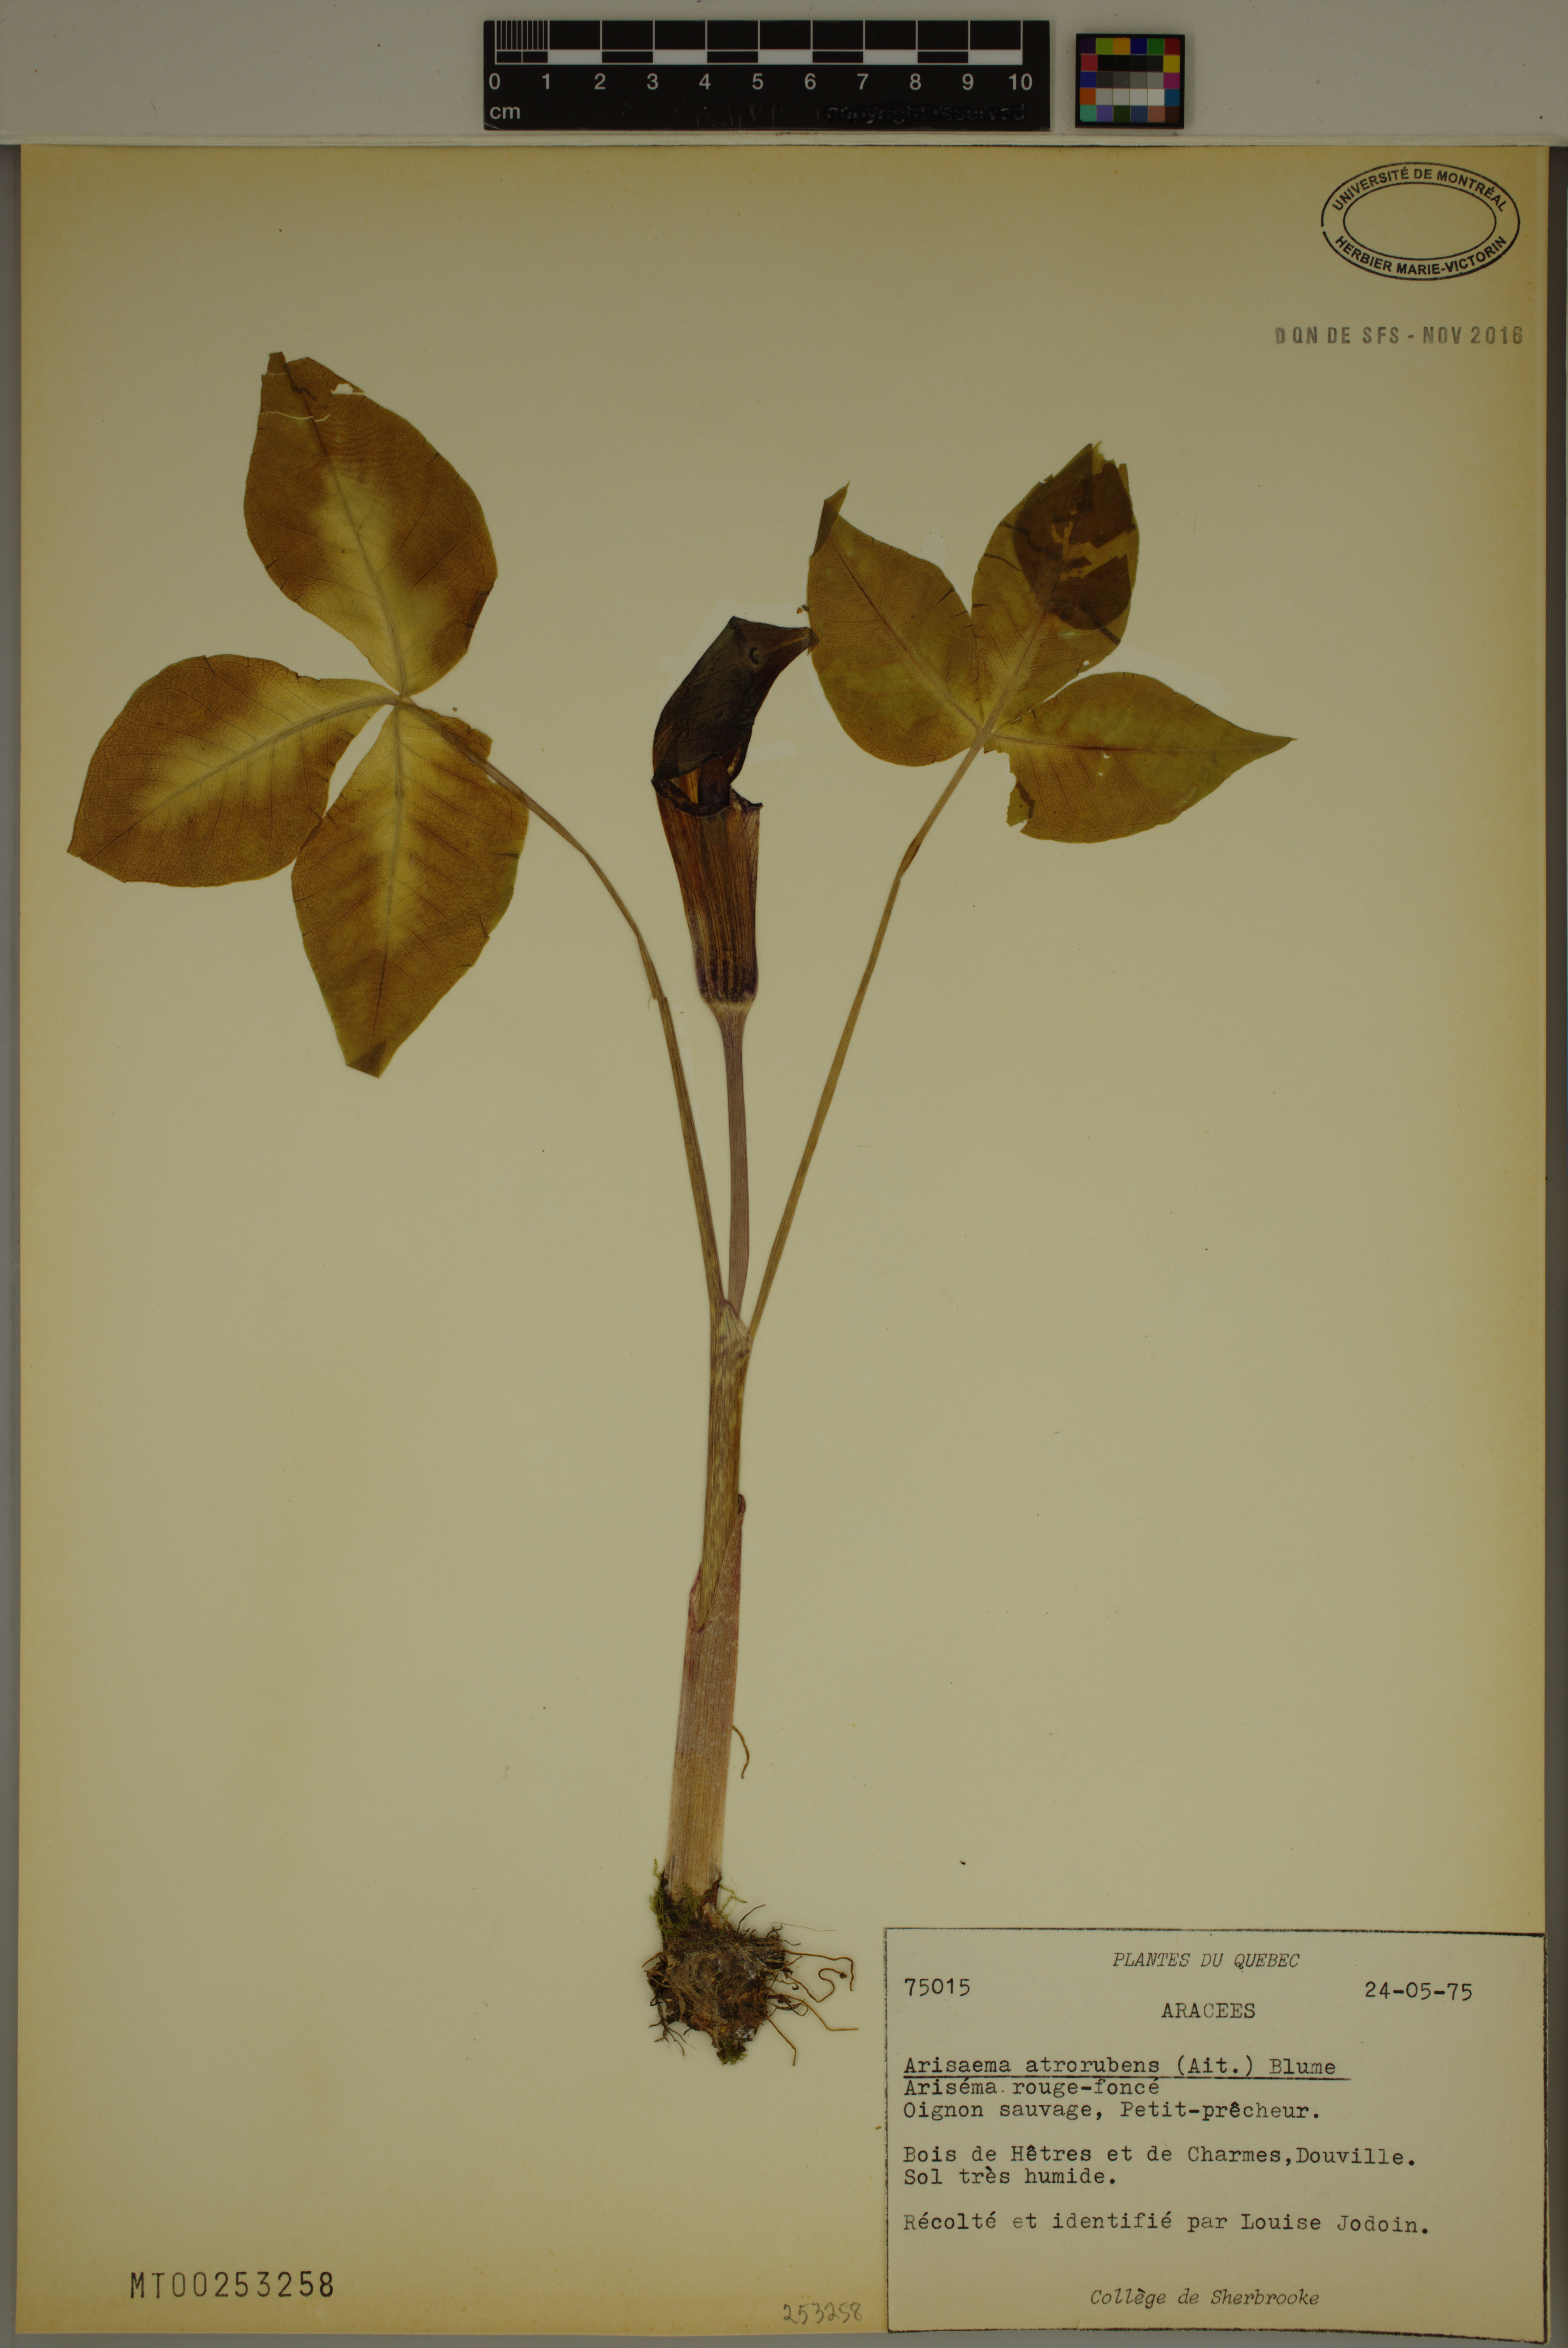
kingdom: Plantae
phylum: Tracheophyta
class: Liliopsida
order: Alismatales
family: Araceae
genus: Arisaema
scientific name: Arisaema triphyllum
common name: Jack-in-the-pulpit
